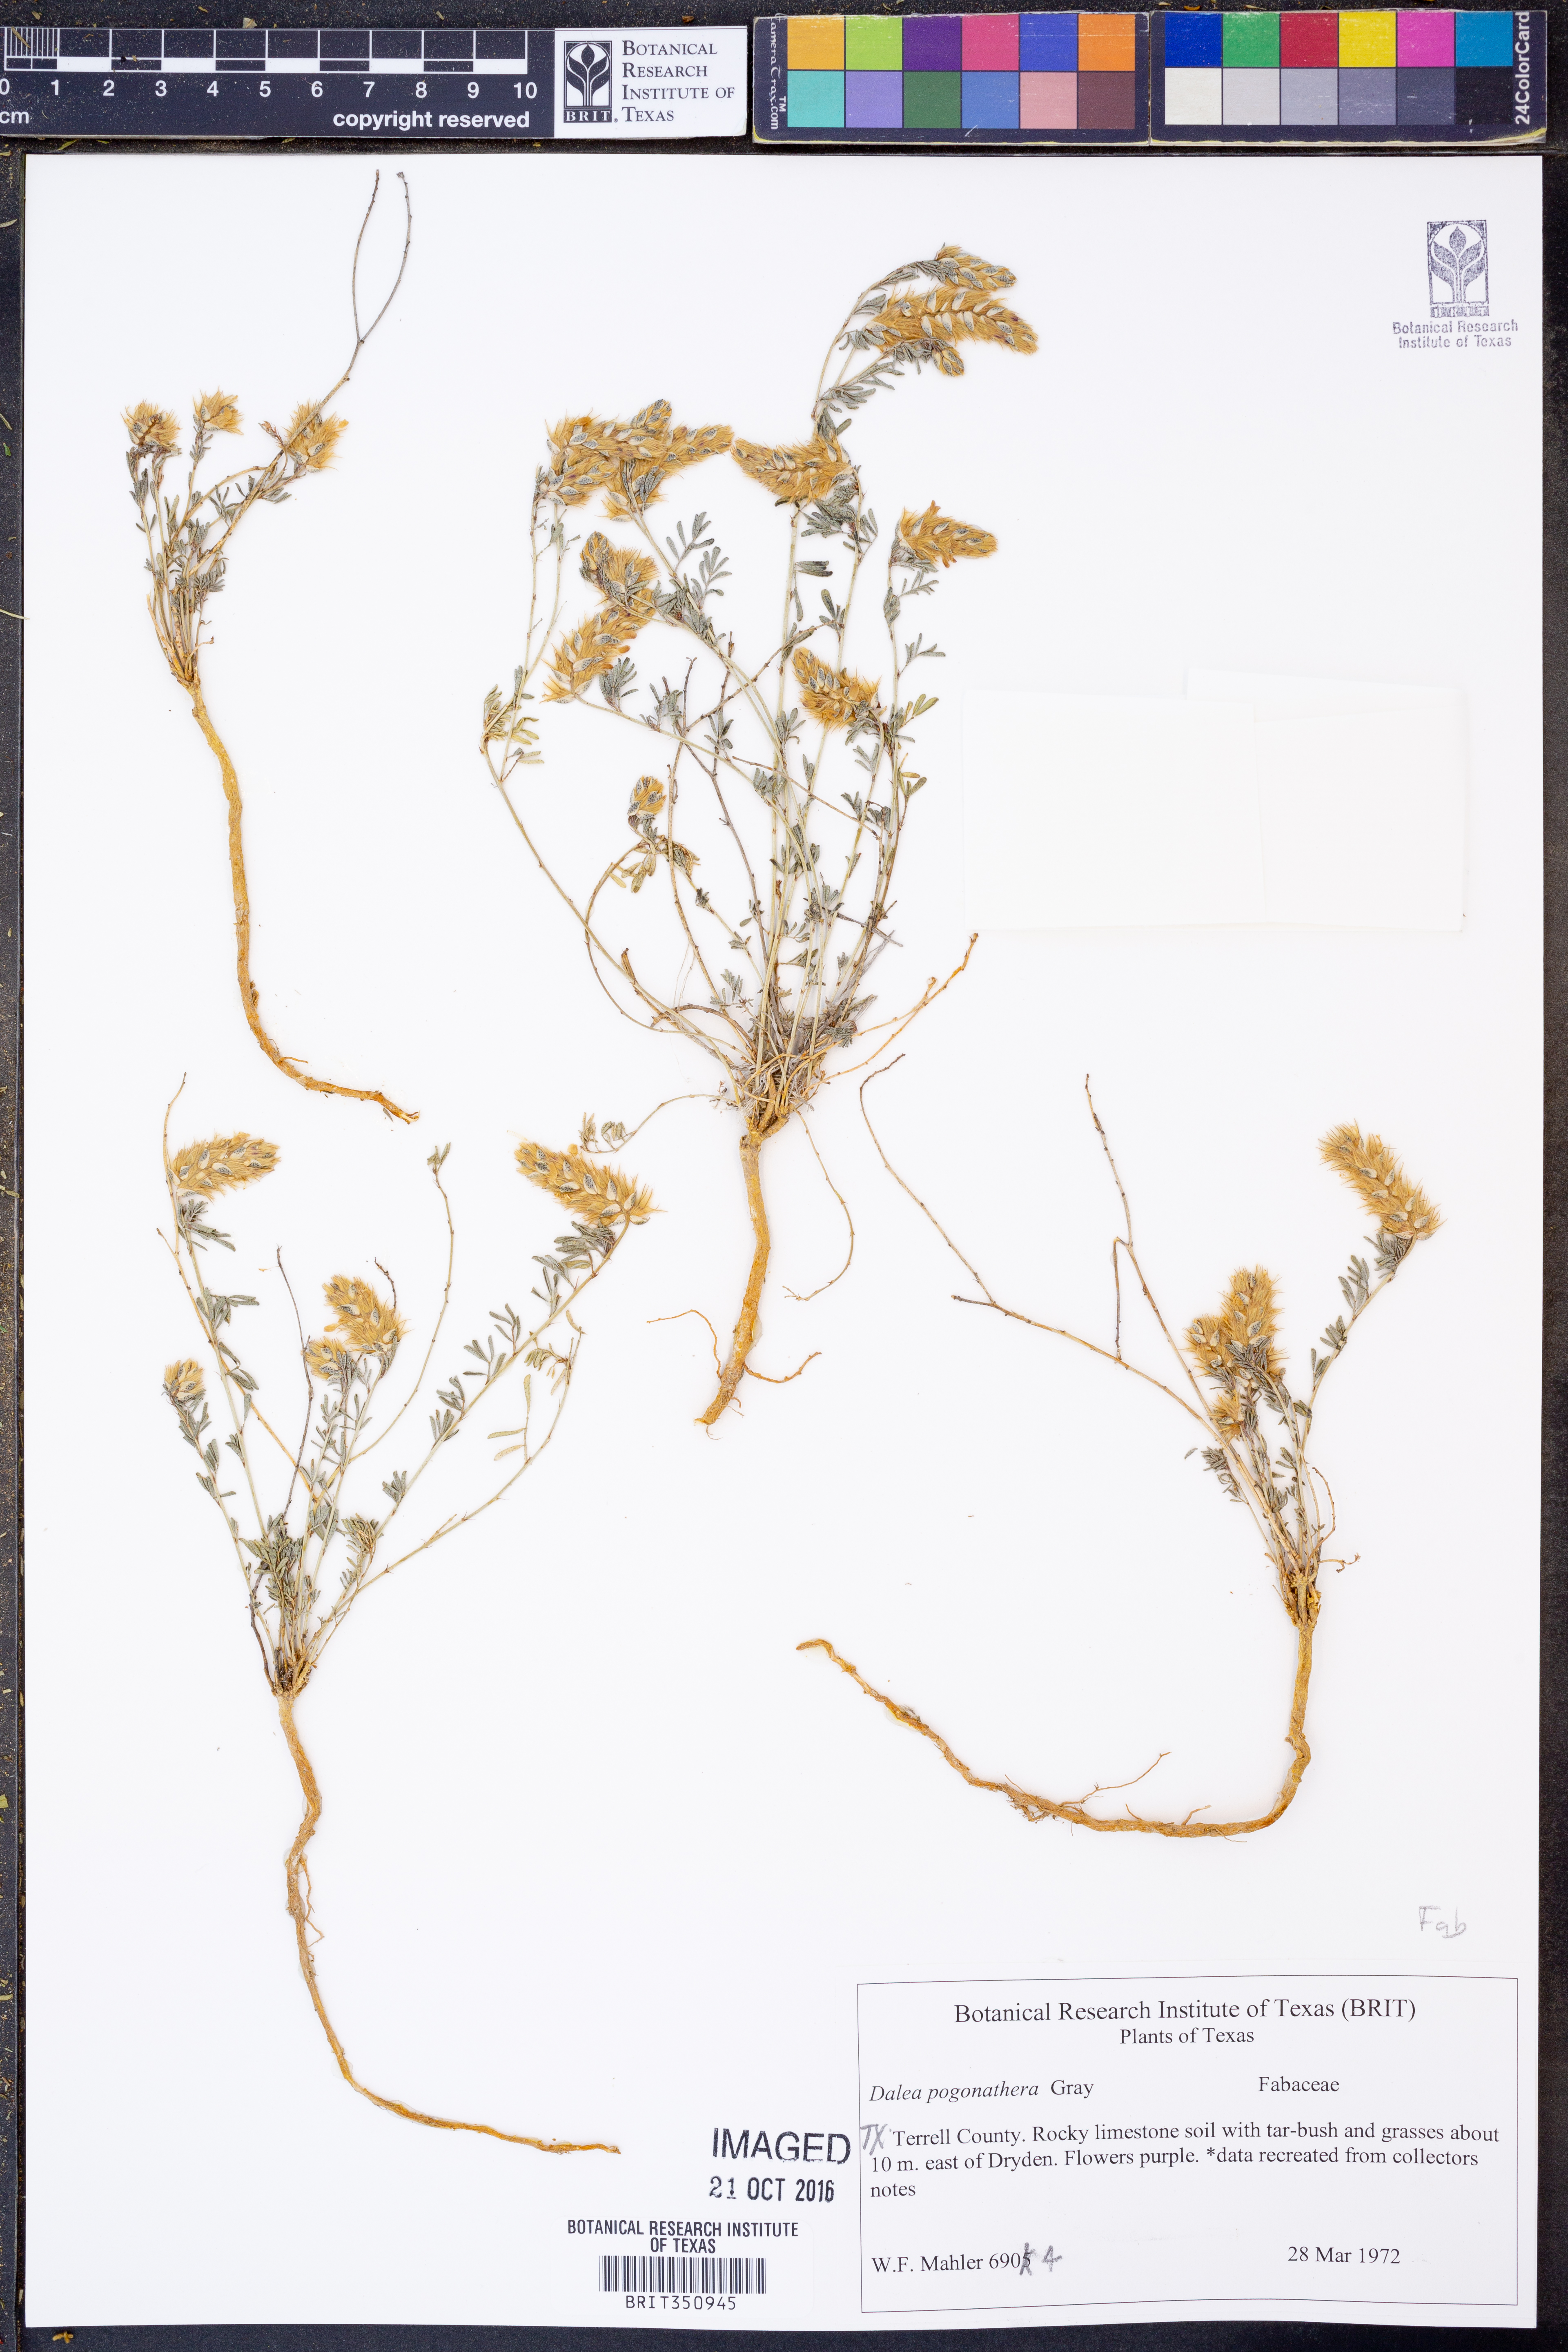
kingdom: Plantae
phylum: Tracheophyta
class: Magnoliopsida
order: Fabales
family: Fabaceae
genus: Dalea
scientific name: Dalea pogonathera
